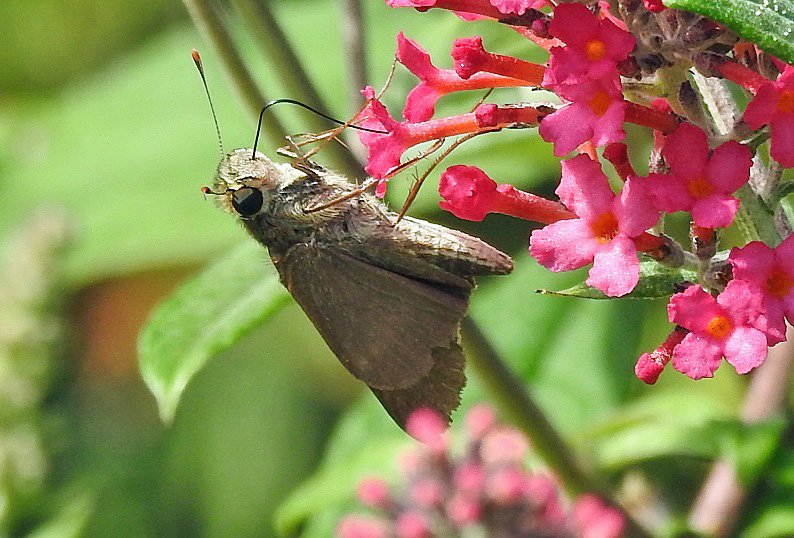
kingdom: Animalia
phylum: Arthropoda
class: Insecta
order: Lepidoptera
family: Hesperiidae
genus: Panoquina
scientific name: Panoquina ocola
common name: Ocola Skipper
